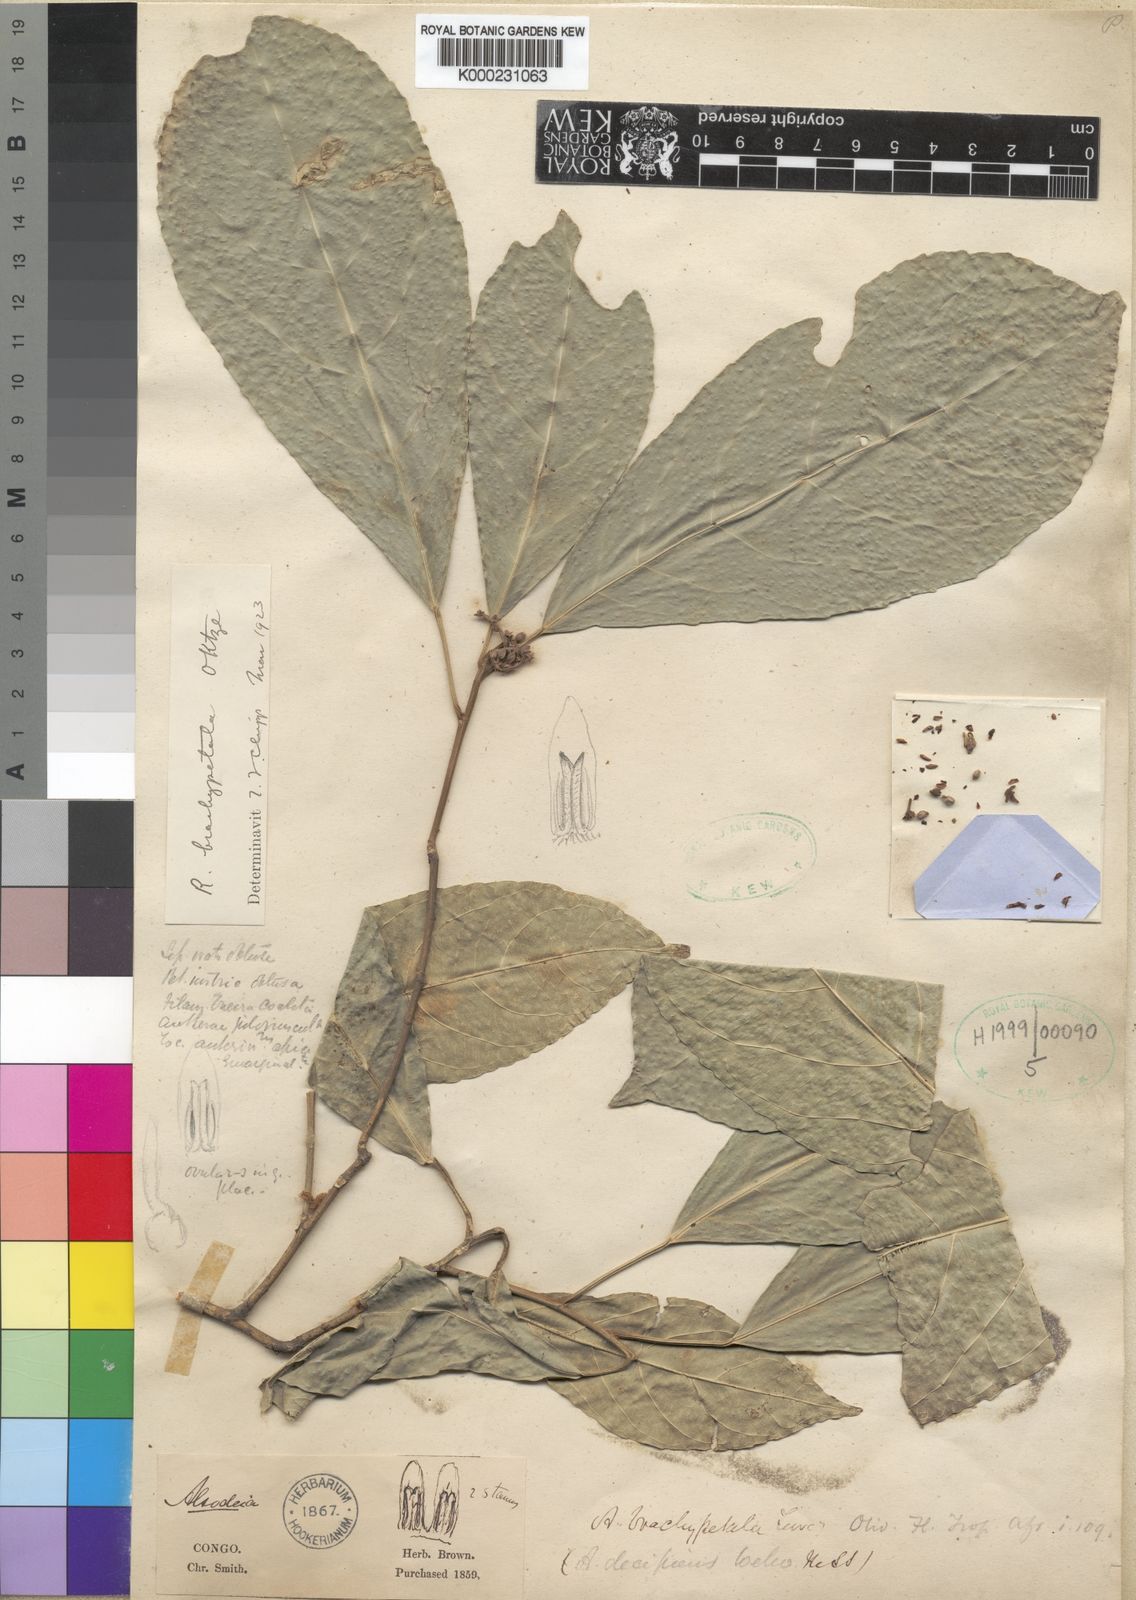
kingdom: Plantae
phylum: Tracheophyta
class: Magnoliopsida
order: Malpighiales
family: Violaceae
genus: Rinorea
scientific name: Rinorea brachypetala
